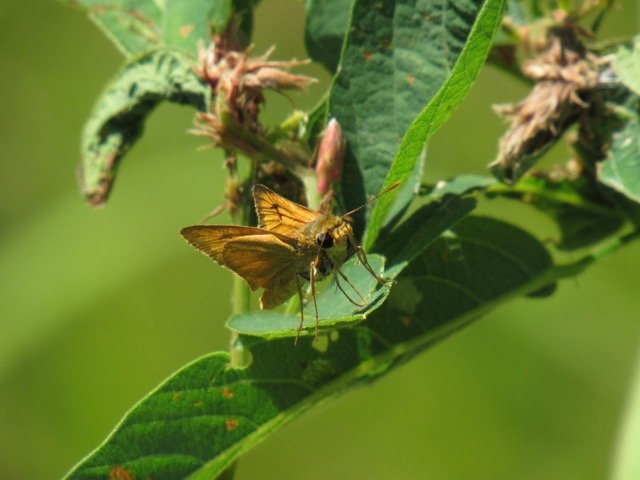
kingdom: Animalia
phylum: Arthropoda
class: Insecta
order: Lepidoptera
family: Hesperiidae
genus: Atrytone
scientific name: Atrytone delaware
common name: Delaware Skipper
